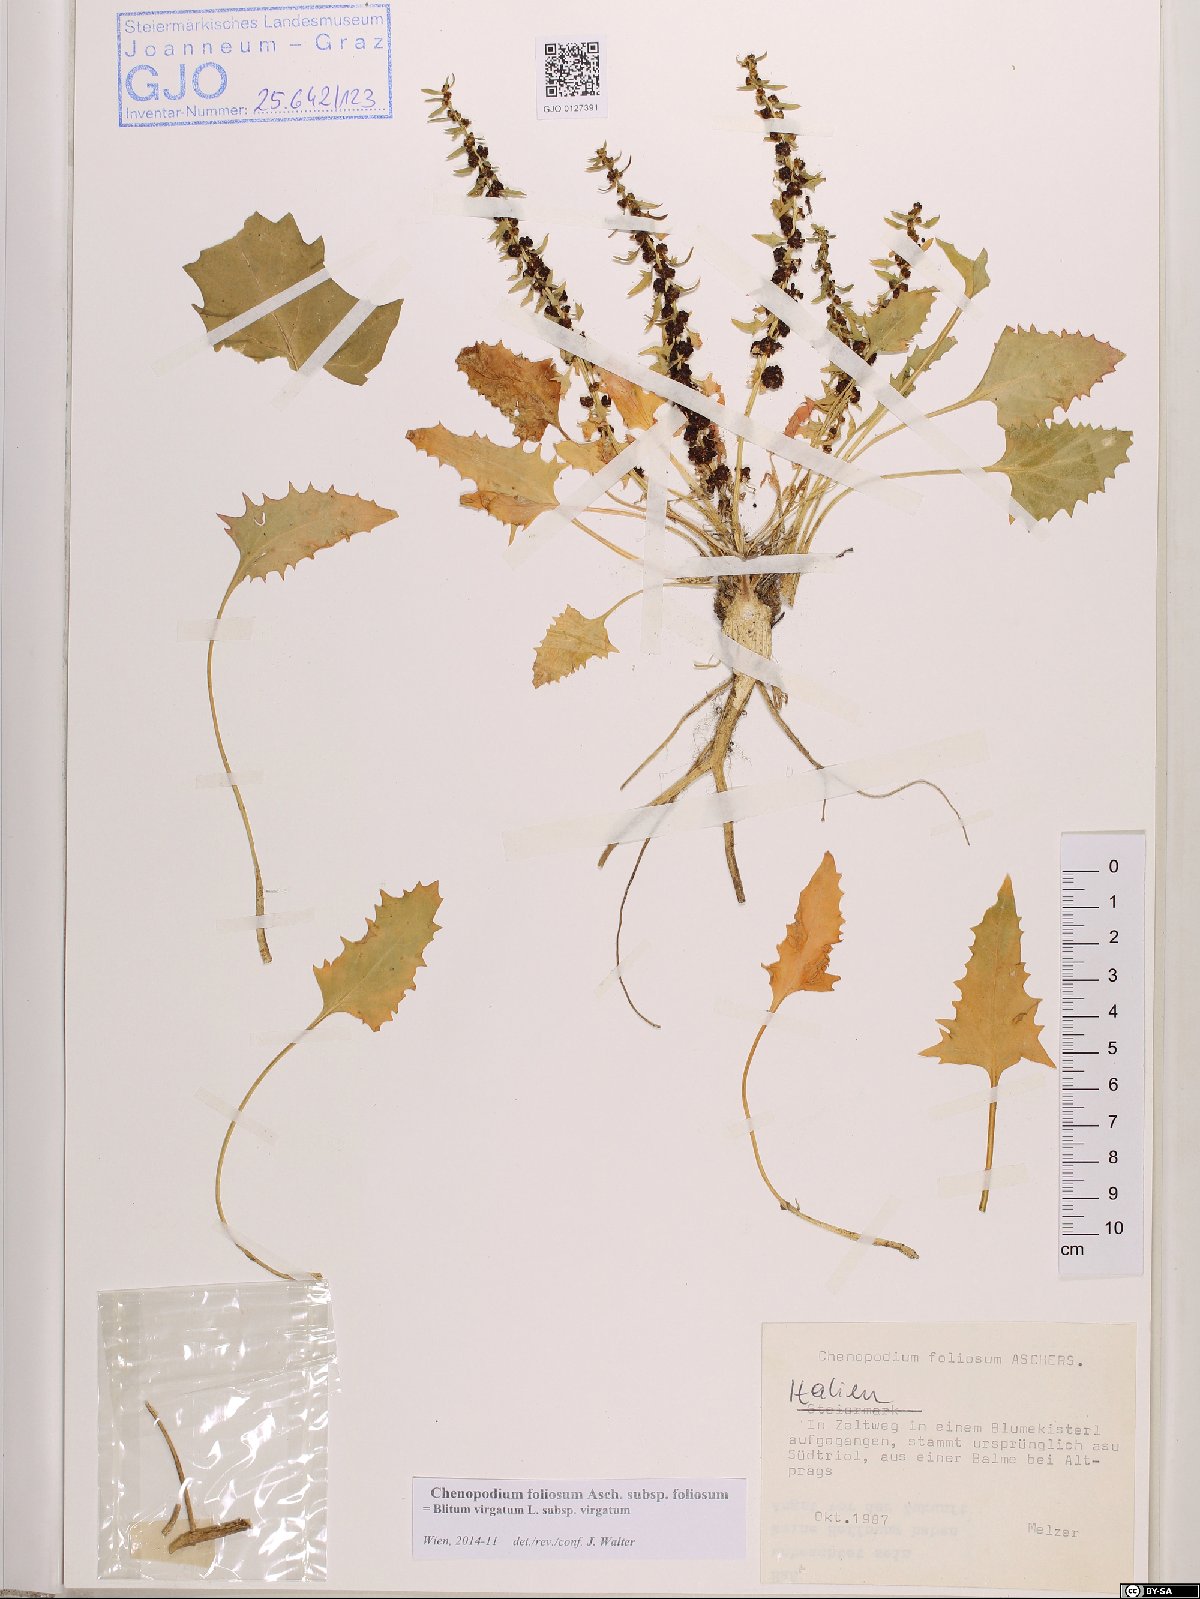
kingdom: Plantae
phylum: Tracheophyta
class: Magnoliopsida
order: Caryophyllales
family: Amaranthaceae
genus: Blitum
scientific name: Blitum virgatum
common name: Strawberry goosefoot
